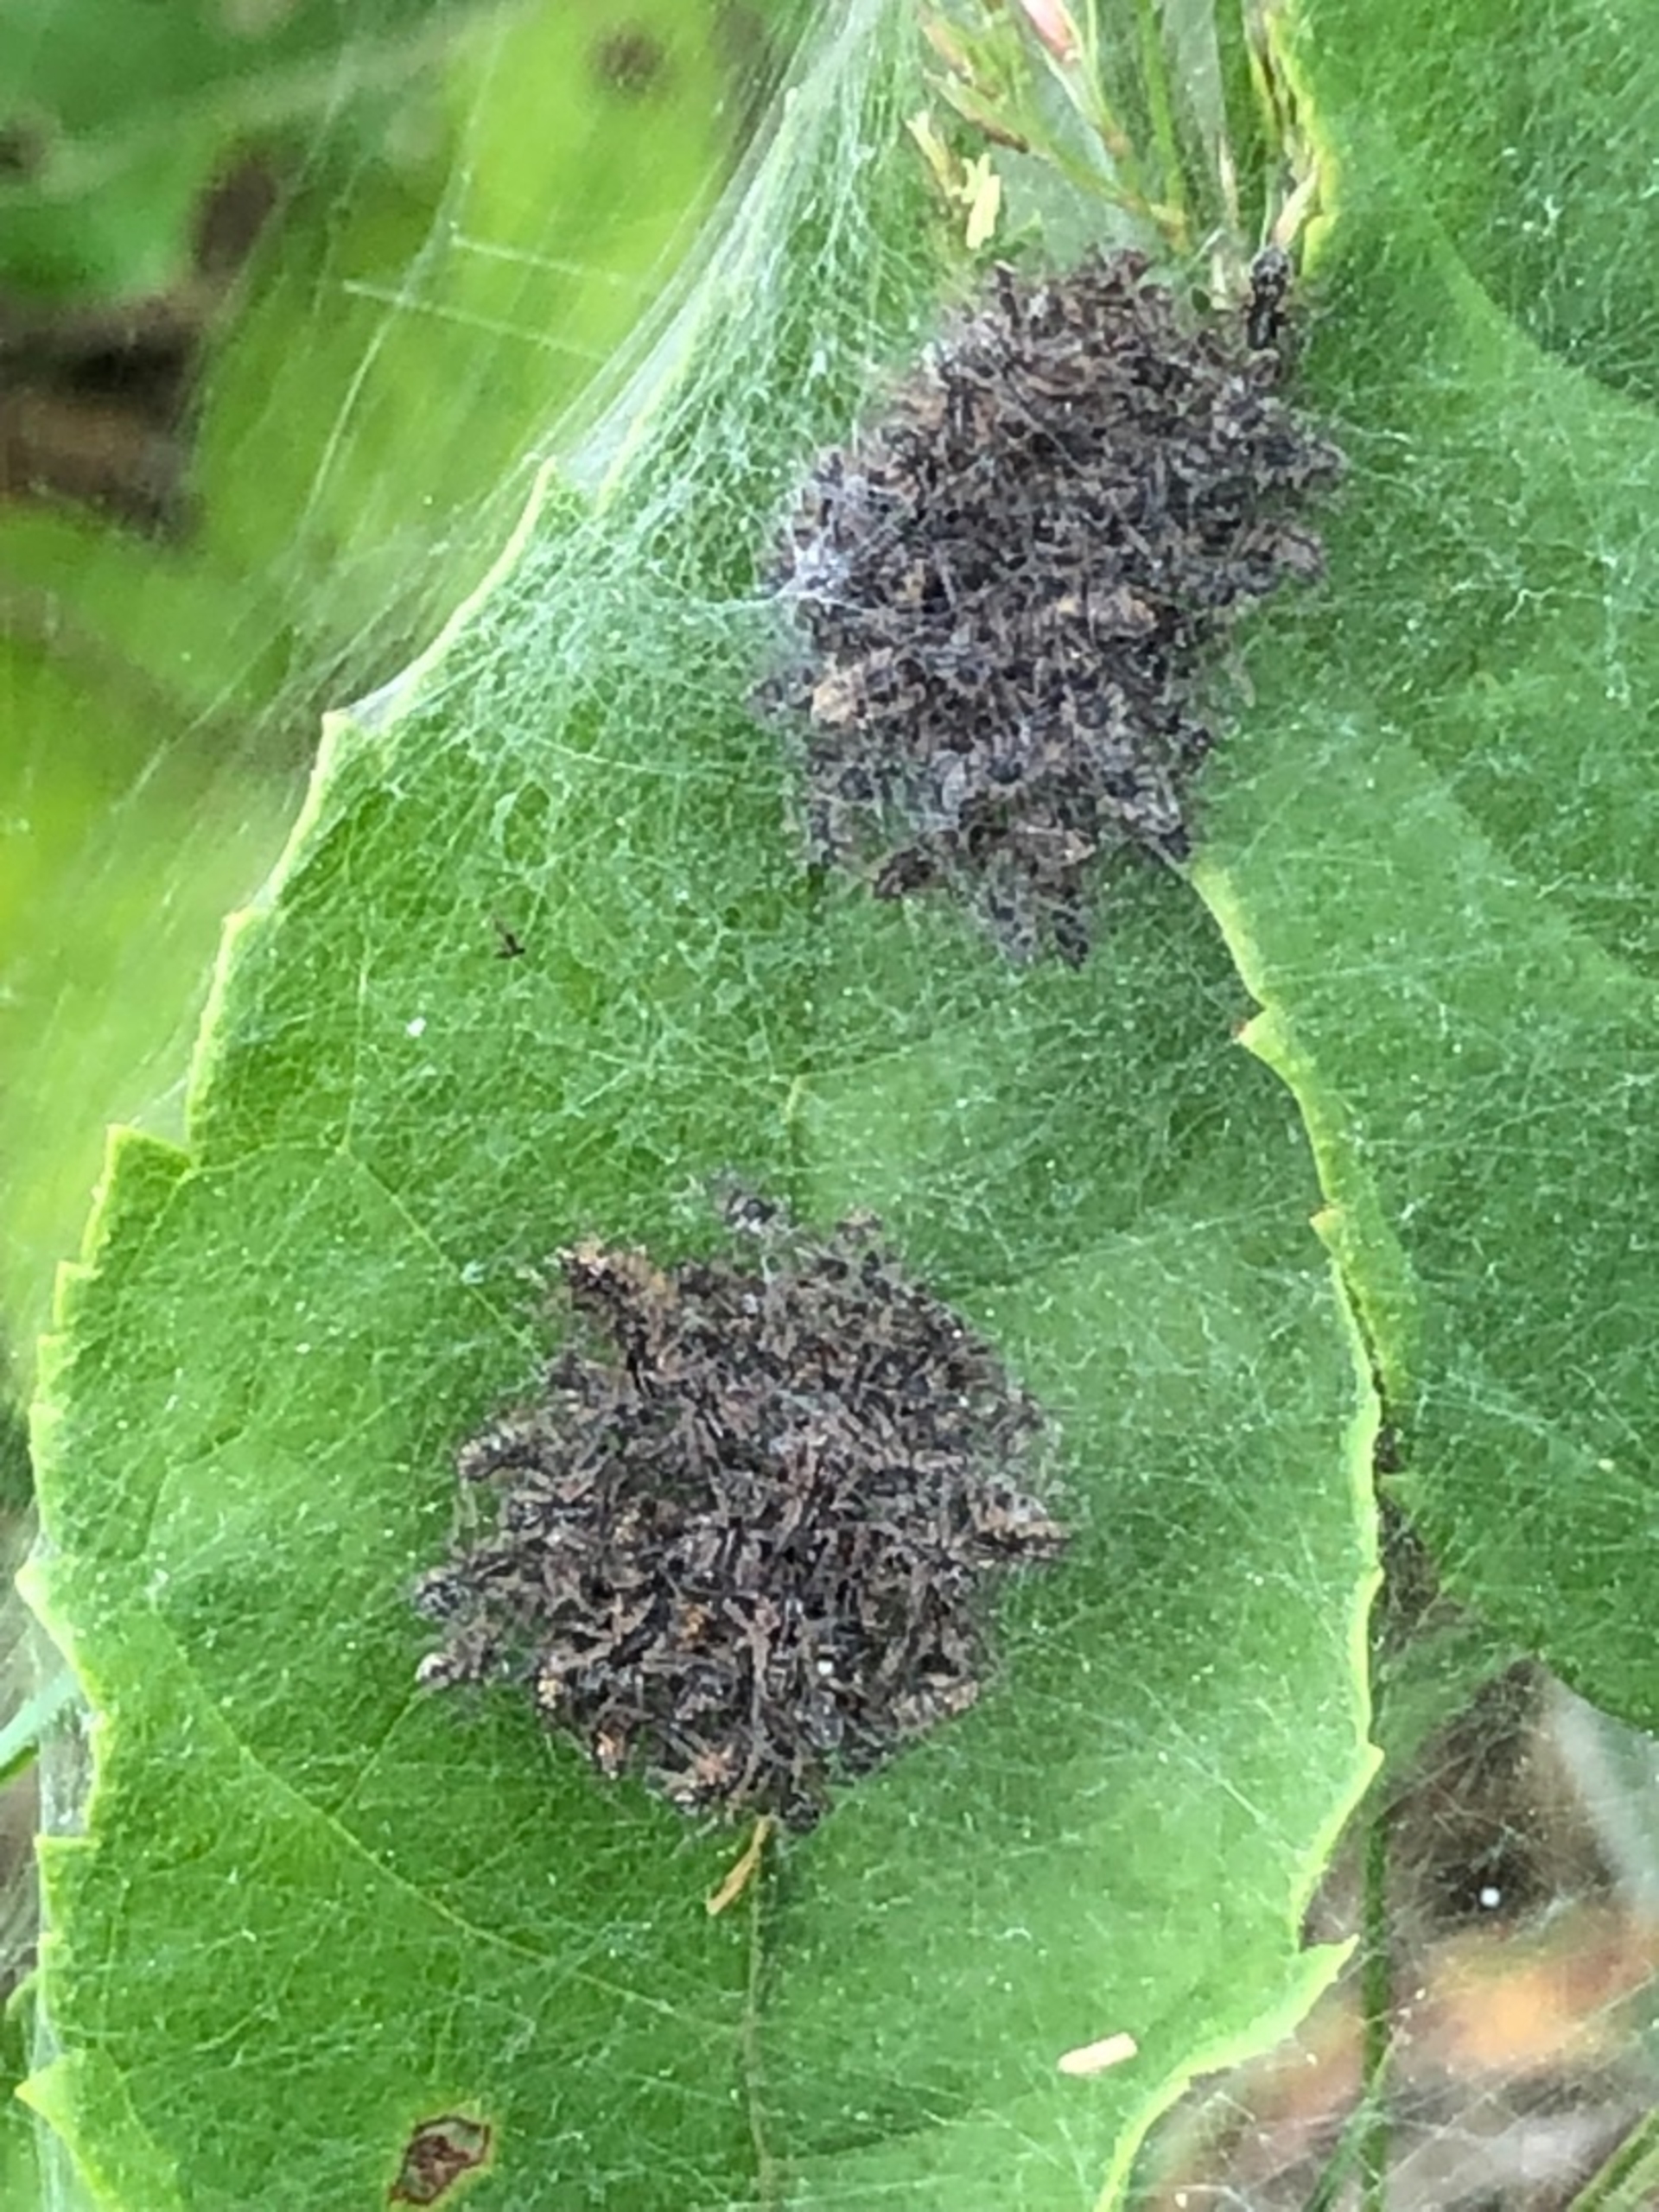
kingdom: Animalia
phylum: Arthropoda
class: Arachnida
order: Araneae
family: Pisauridae
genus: Pisaura
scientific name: Pisaura mirabilis
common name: Almindelig rovedderkop
